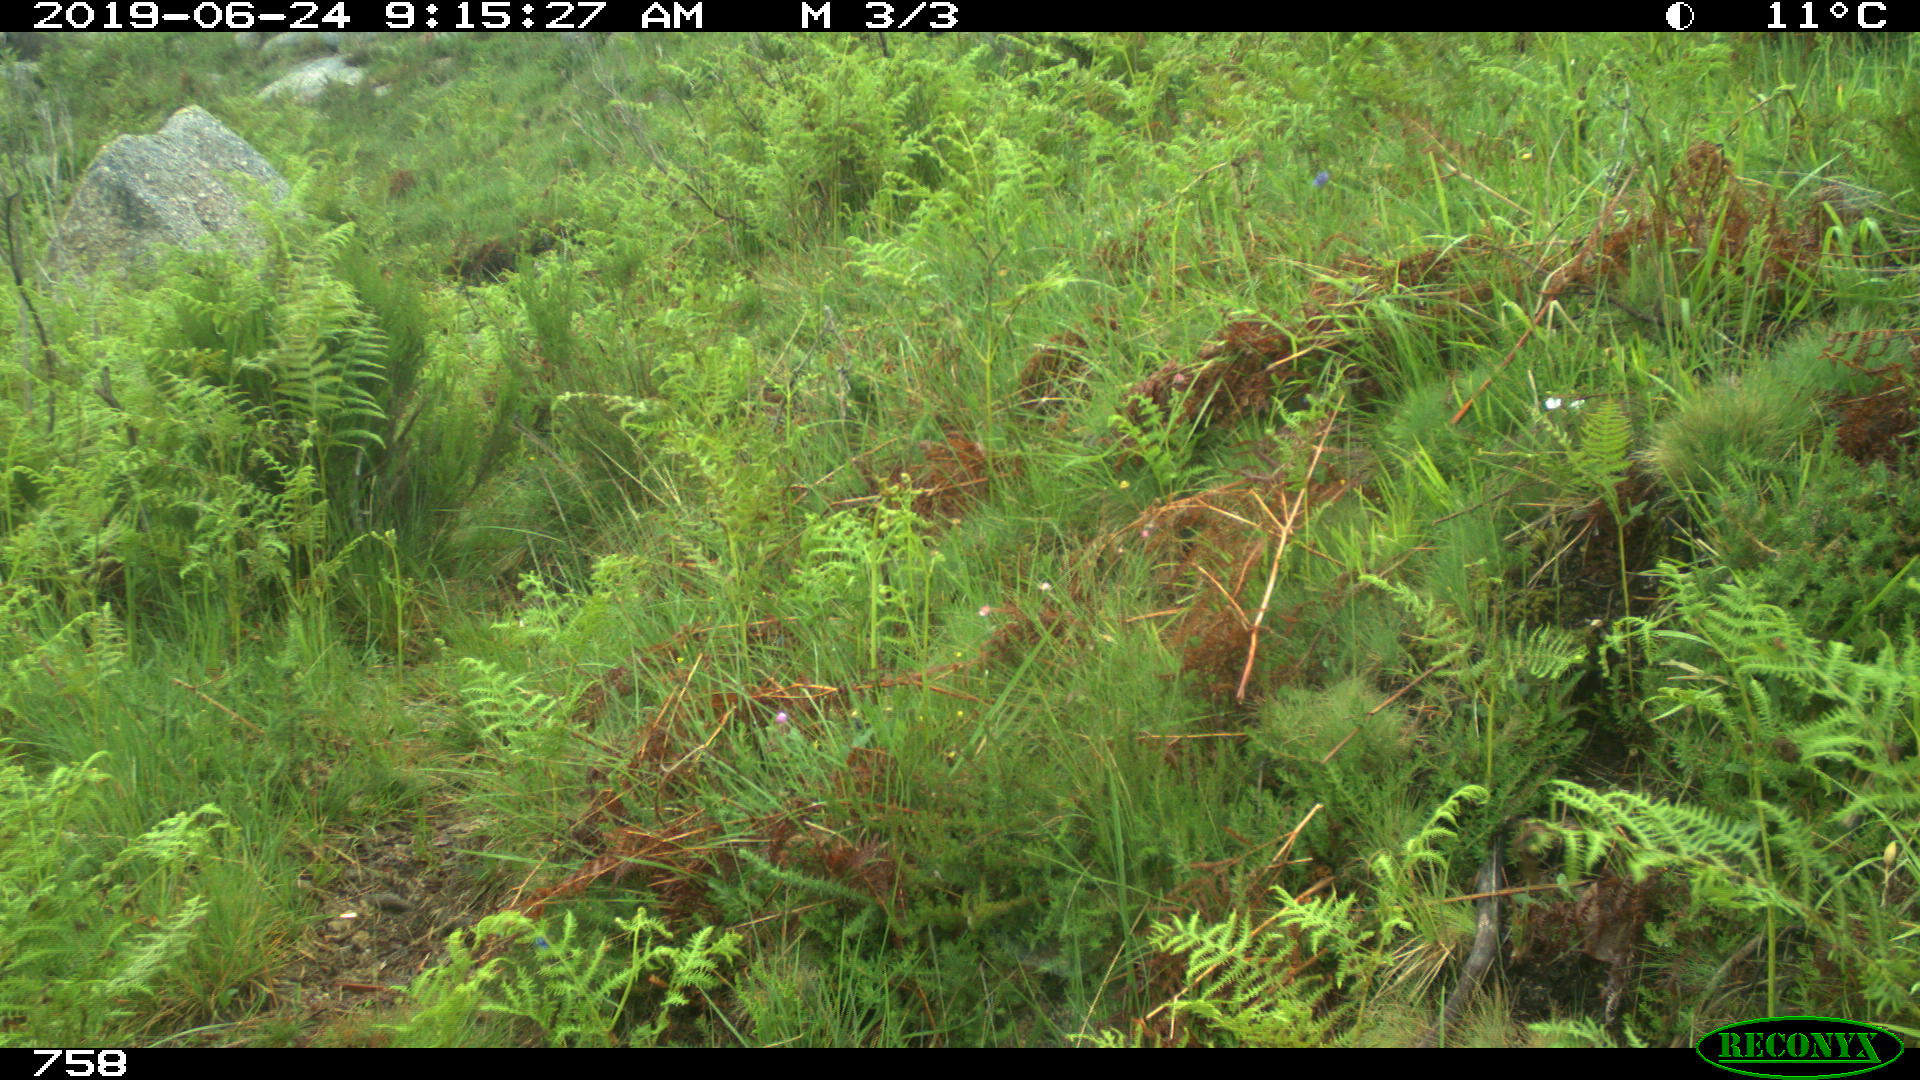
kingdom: Animalia
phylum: Chordata
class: Mammalia
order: Artiodactyla
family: Cervidae
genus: Capreolus
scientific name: Capreolus capreolus
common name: Western roe deer
